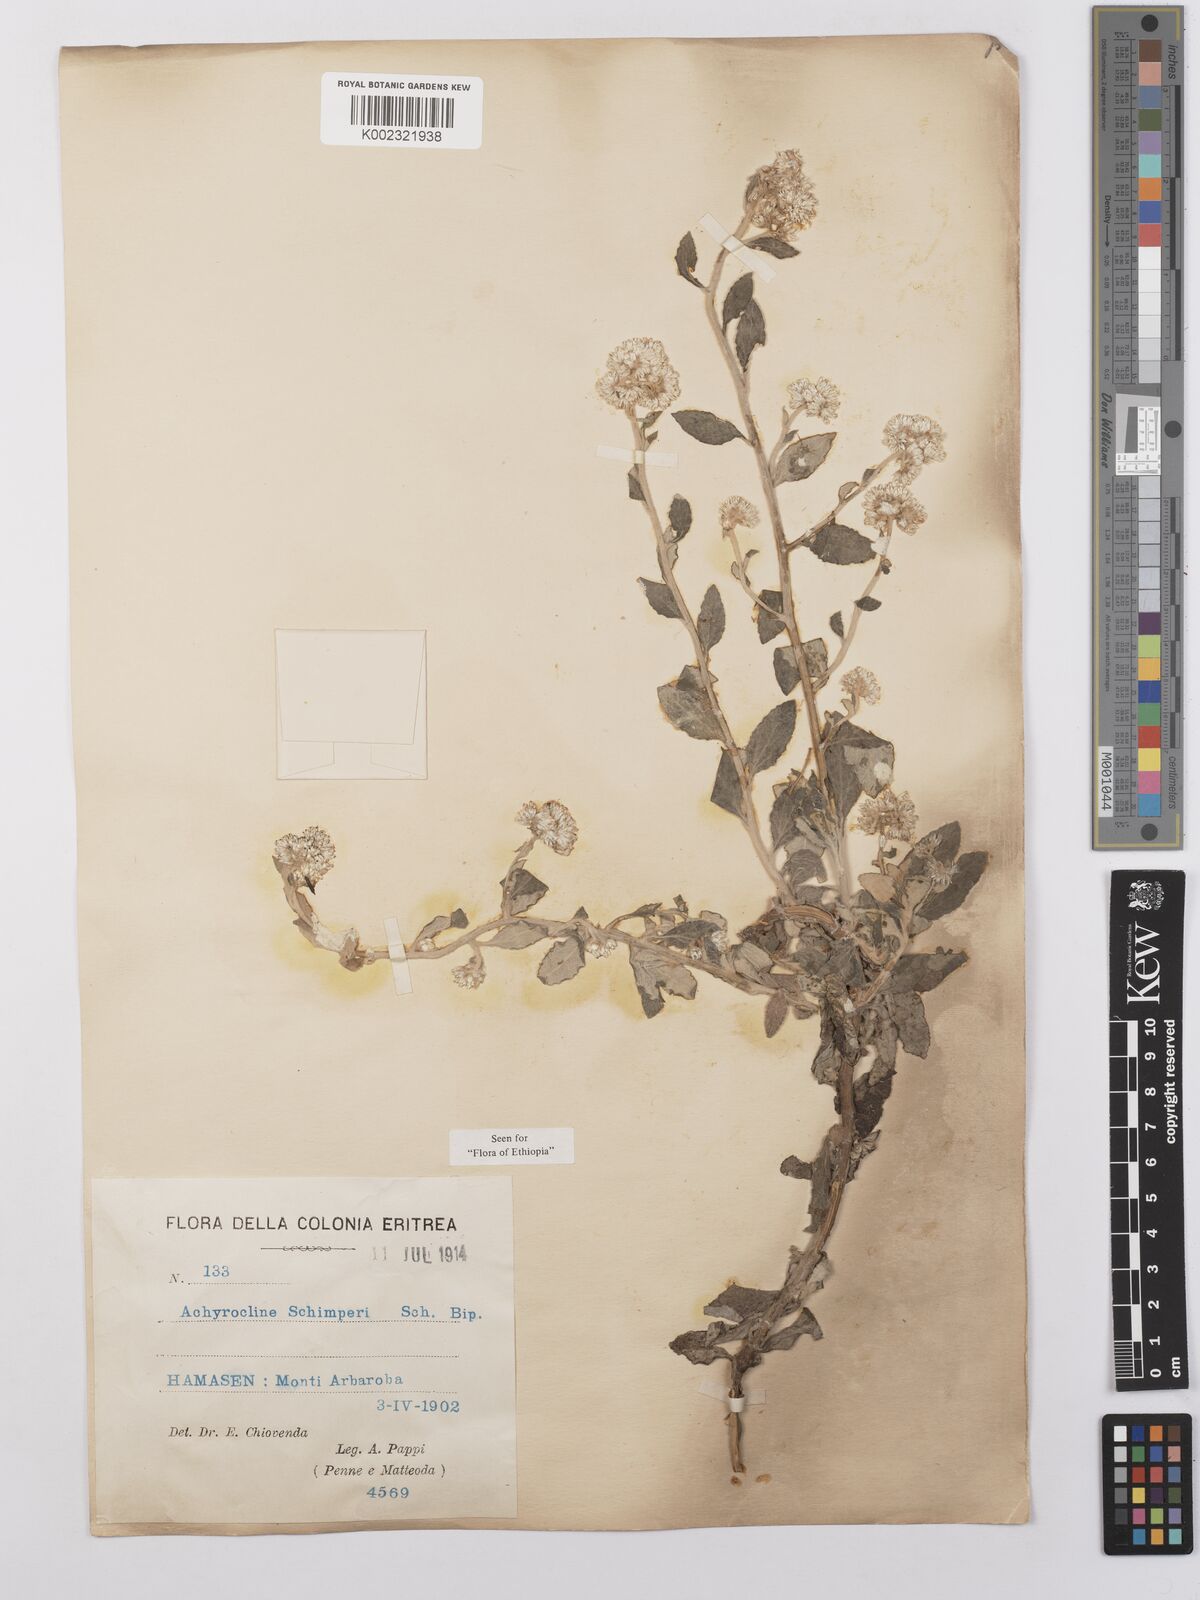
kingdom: Plantae
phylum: Tracheophyta
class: Magnoliopsida
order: Asterales
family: Asteraceae
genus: Helichrysum
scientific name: Helichrysum schimperi
